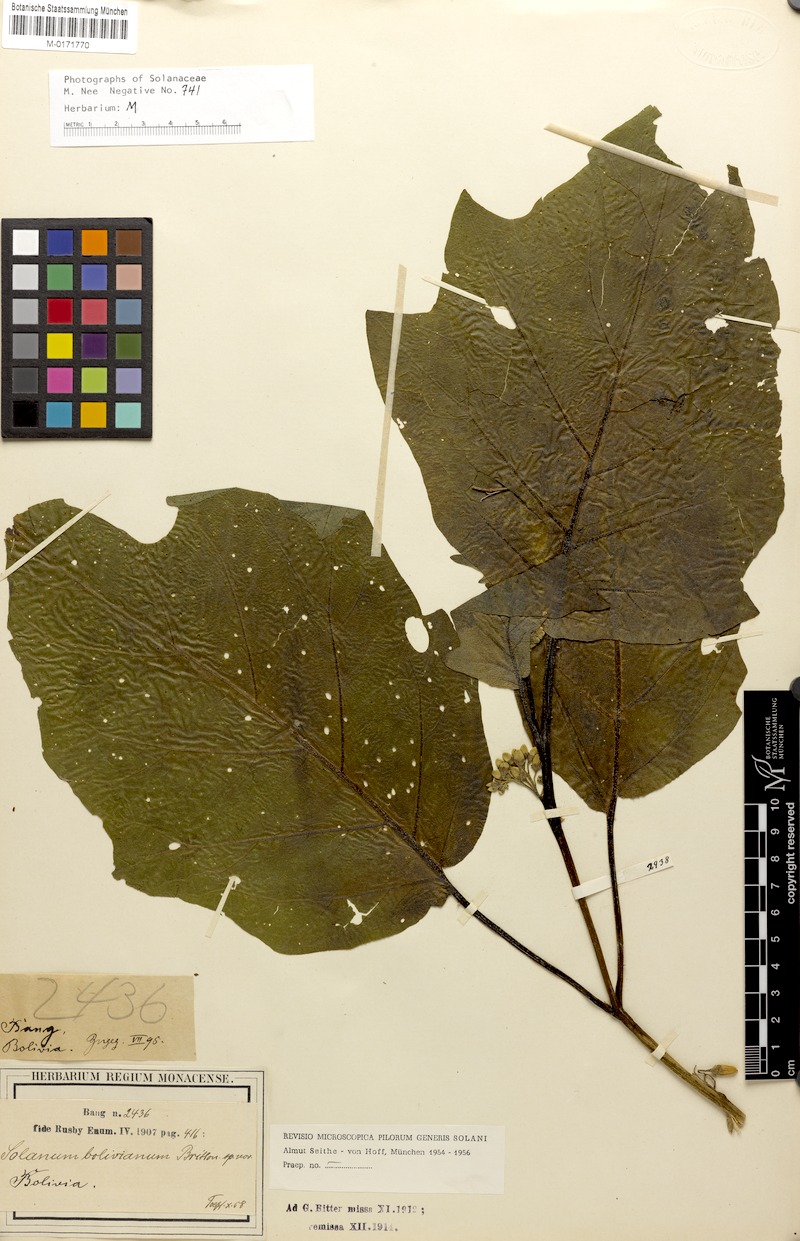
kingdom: Plantae
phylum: Tracheophyta
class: Magnoliopsida
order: Solanales
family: Solanaceae
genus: Solanum
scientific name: Solanum bolivianum
